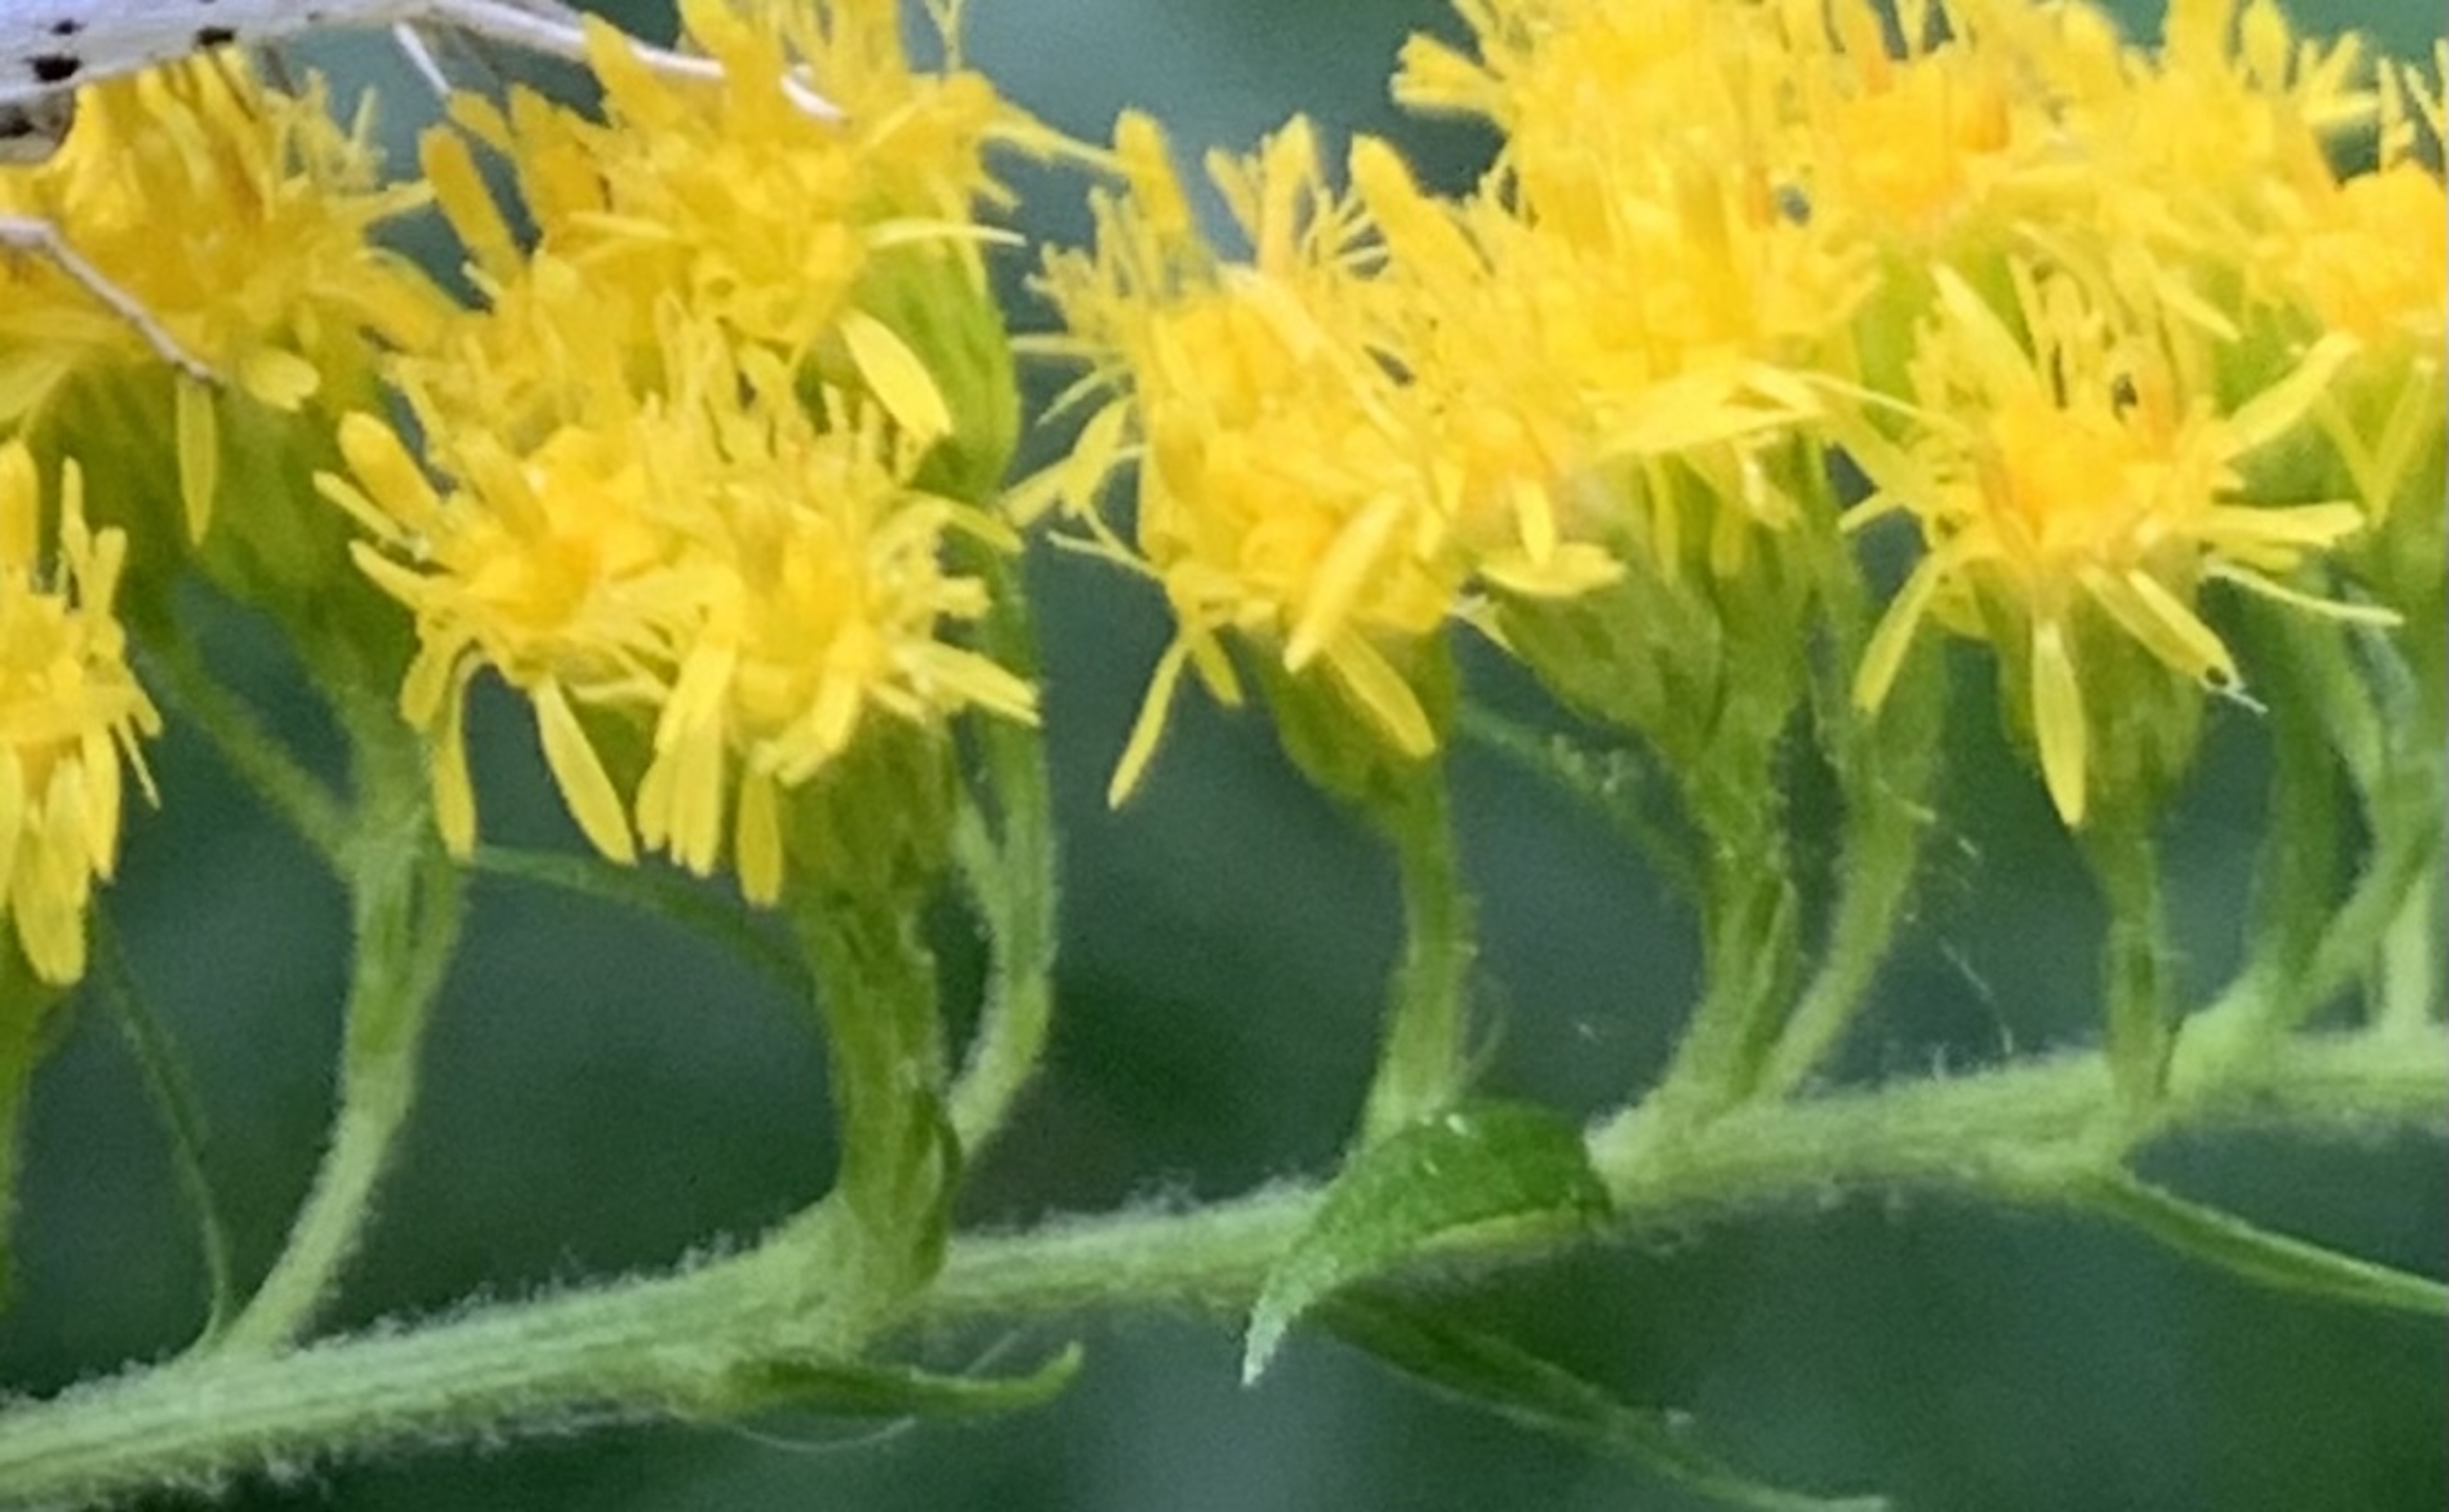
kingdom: Plantae
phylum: Tracheophyta
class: Magnoliopsida
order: Asterales
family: Asteraceae
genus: Solidago
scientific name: Solidago canadensis
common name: Kanadisk gyldenris
